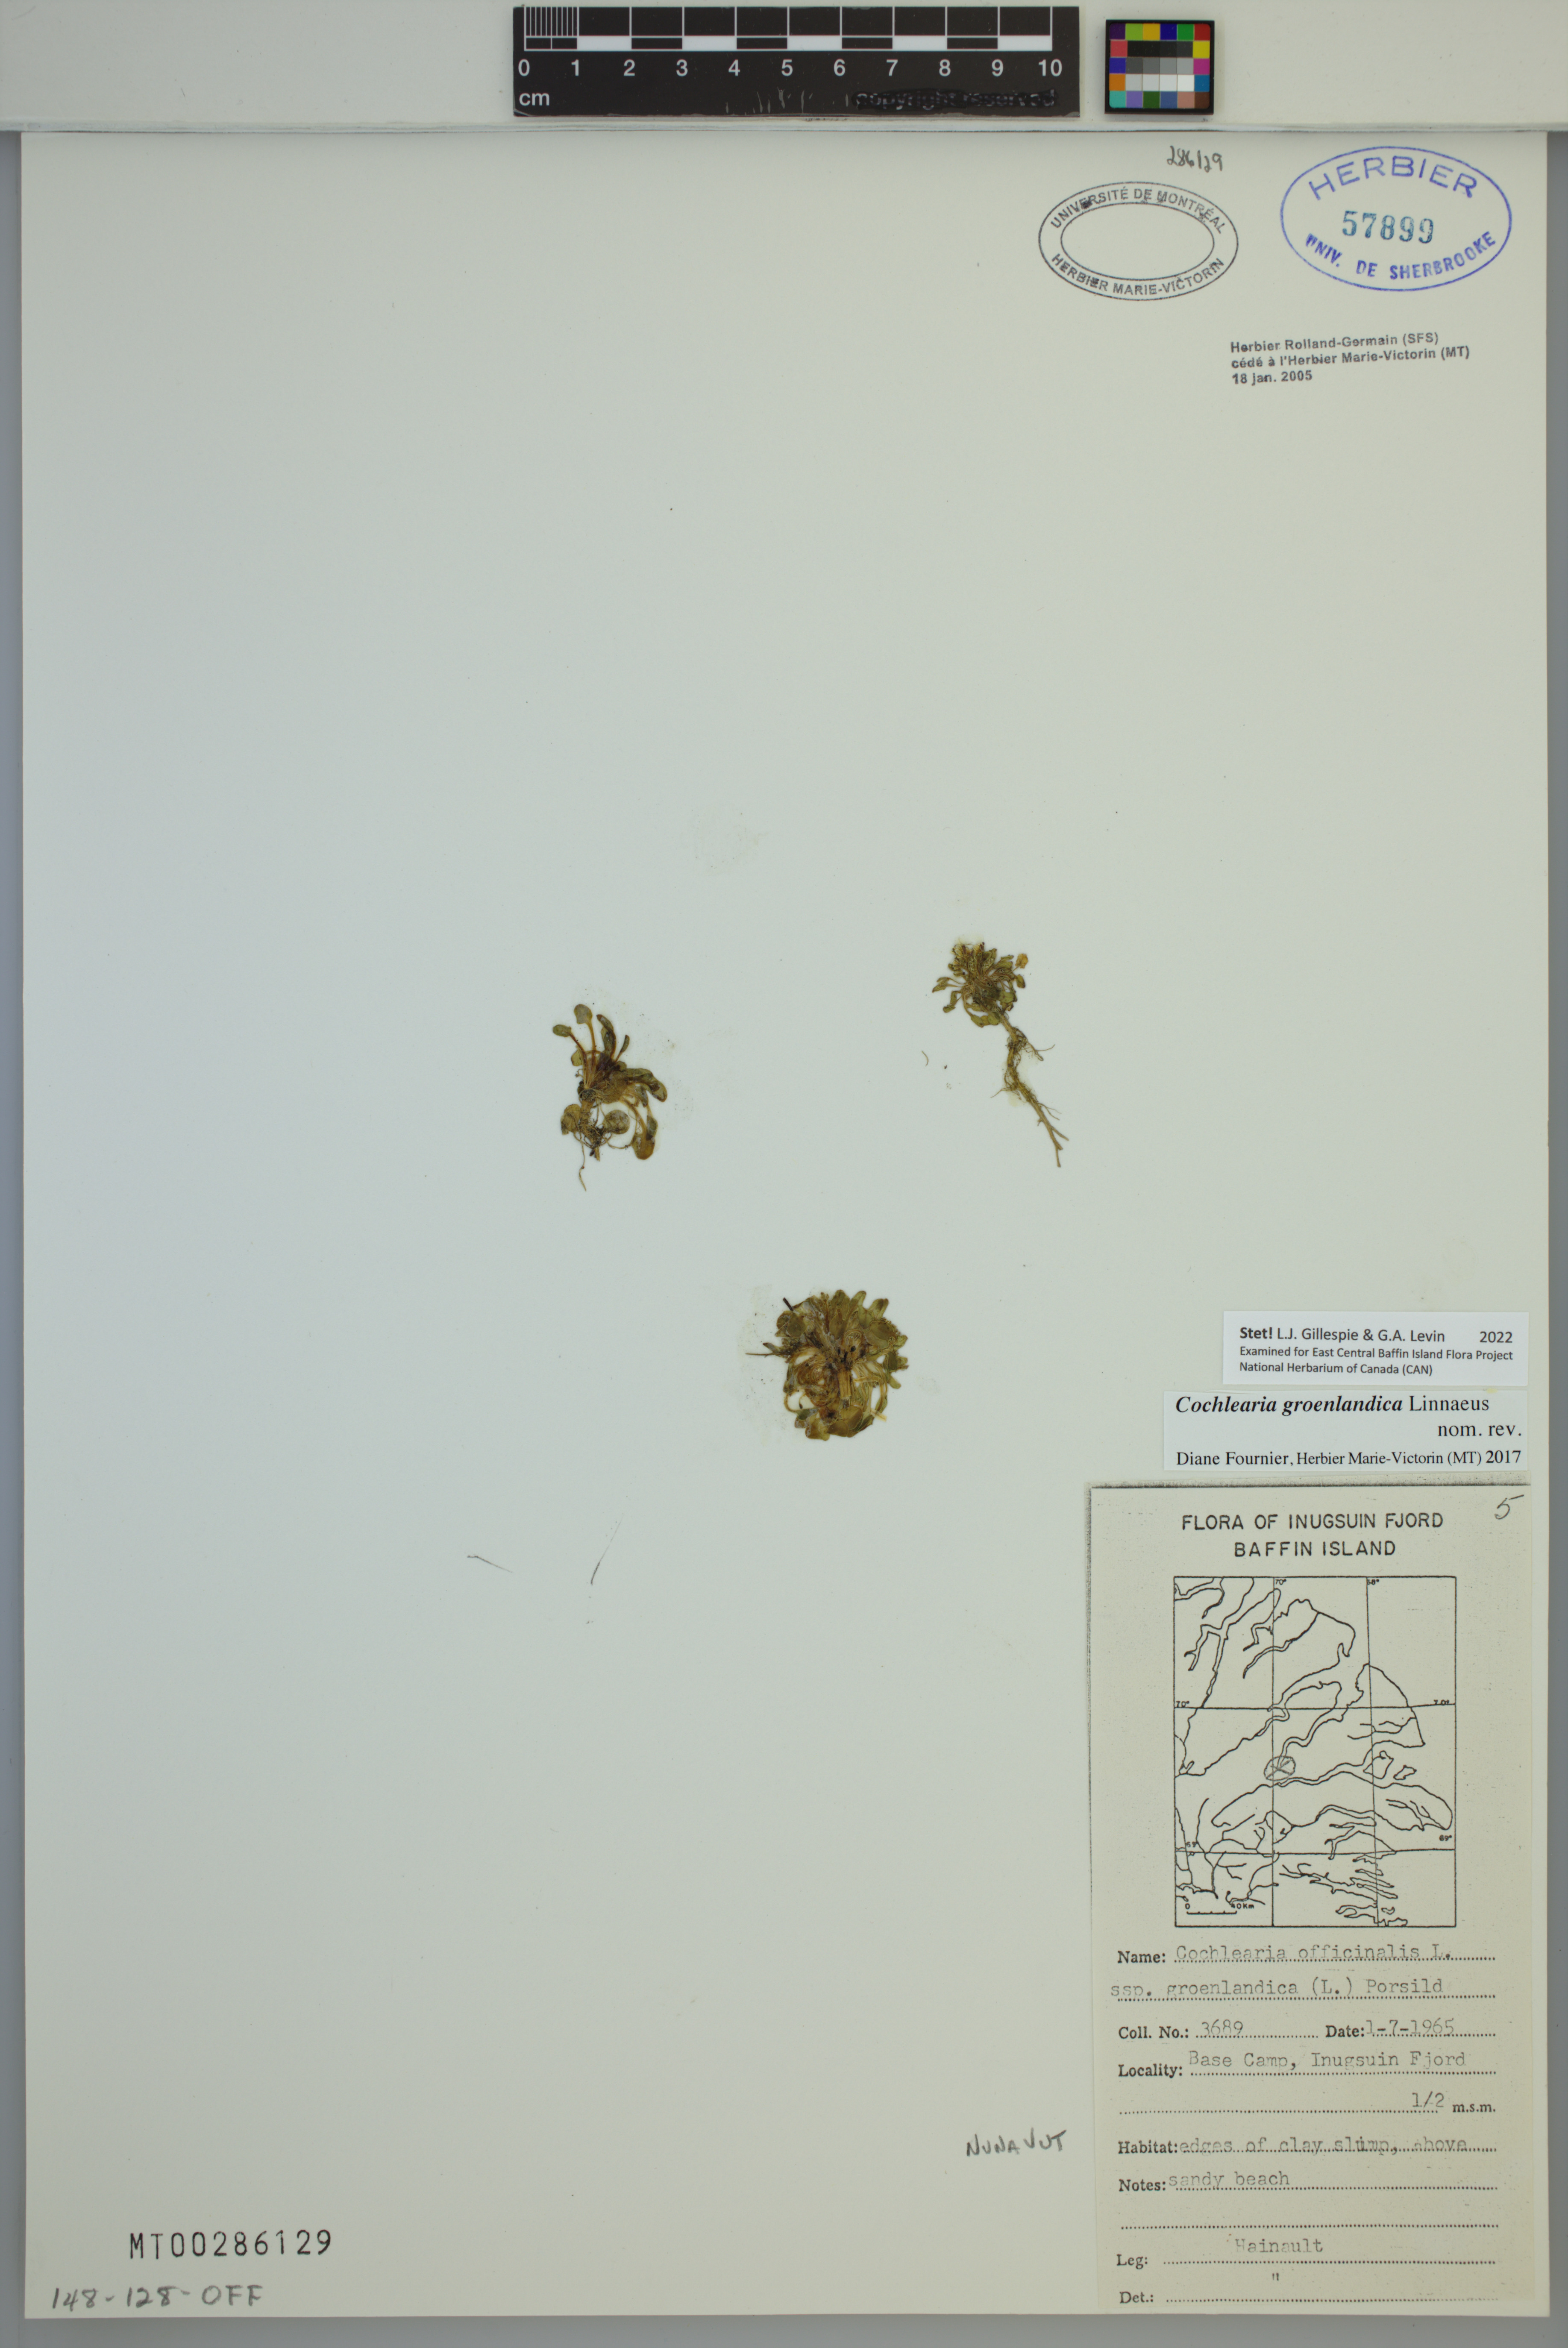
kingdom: Plantae
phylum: Tracheophyta
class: Magnoliopsida
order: Brassicales
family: Brassicaceae
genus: Cochlearia
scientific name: Cochlearia groenlandica
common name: Danish scurvygrass
